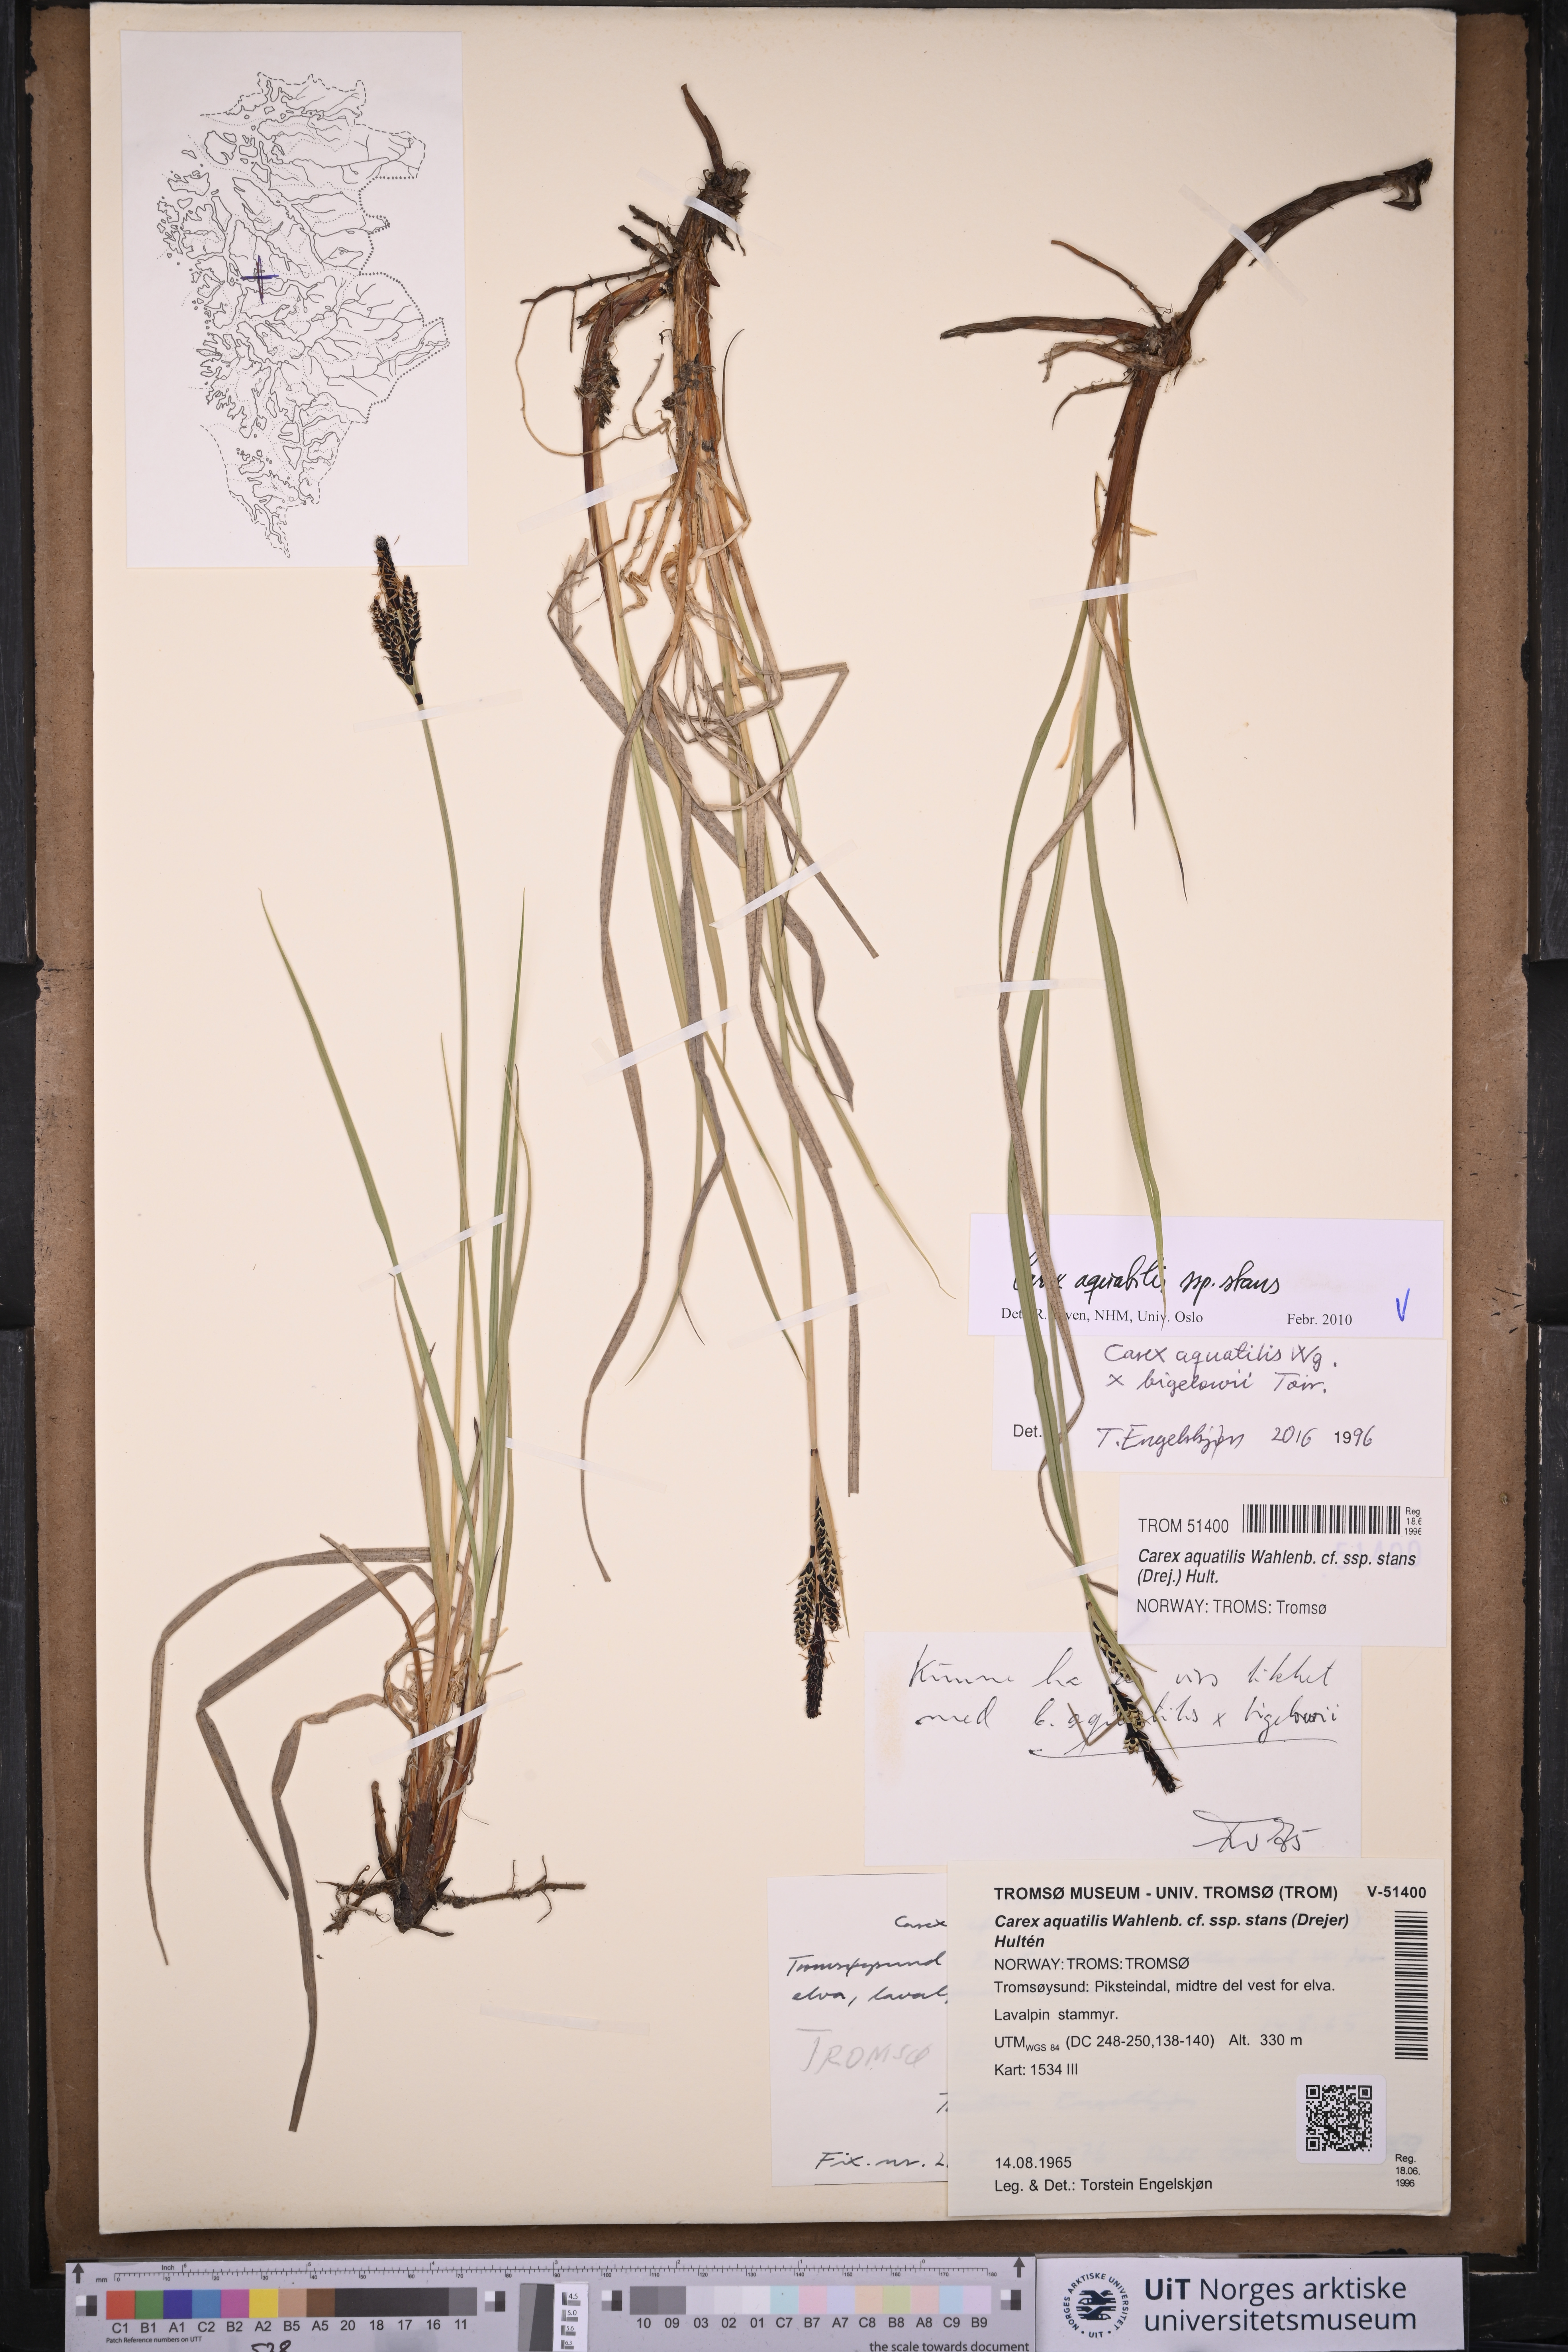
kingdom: Plantae
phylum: Tracheophyta
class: Liliopsida
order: Poales
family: Cyperaceae
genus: Carex
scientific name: Carex aquatilis
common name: Water sedge
